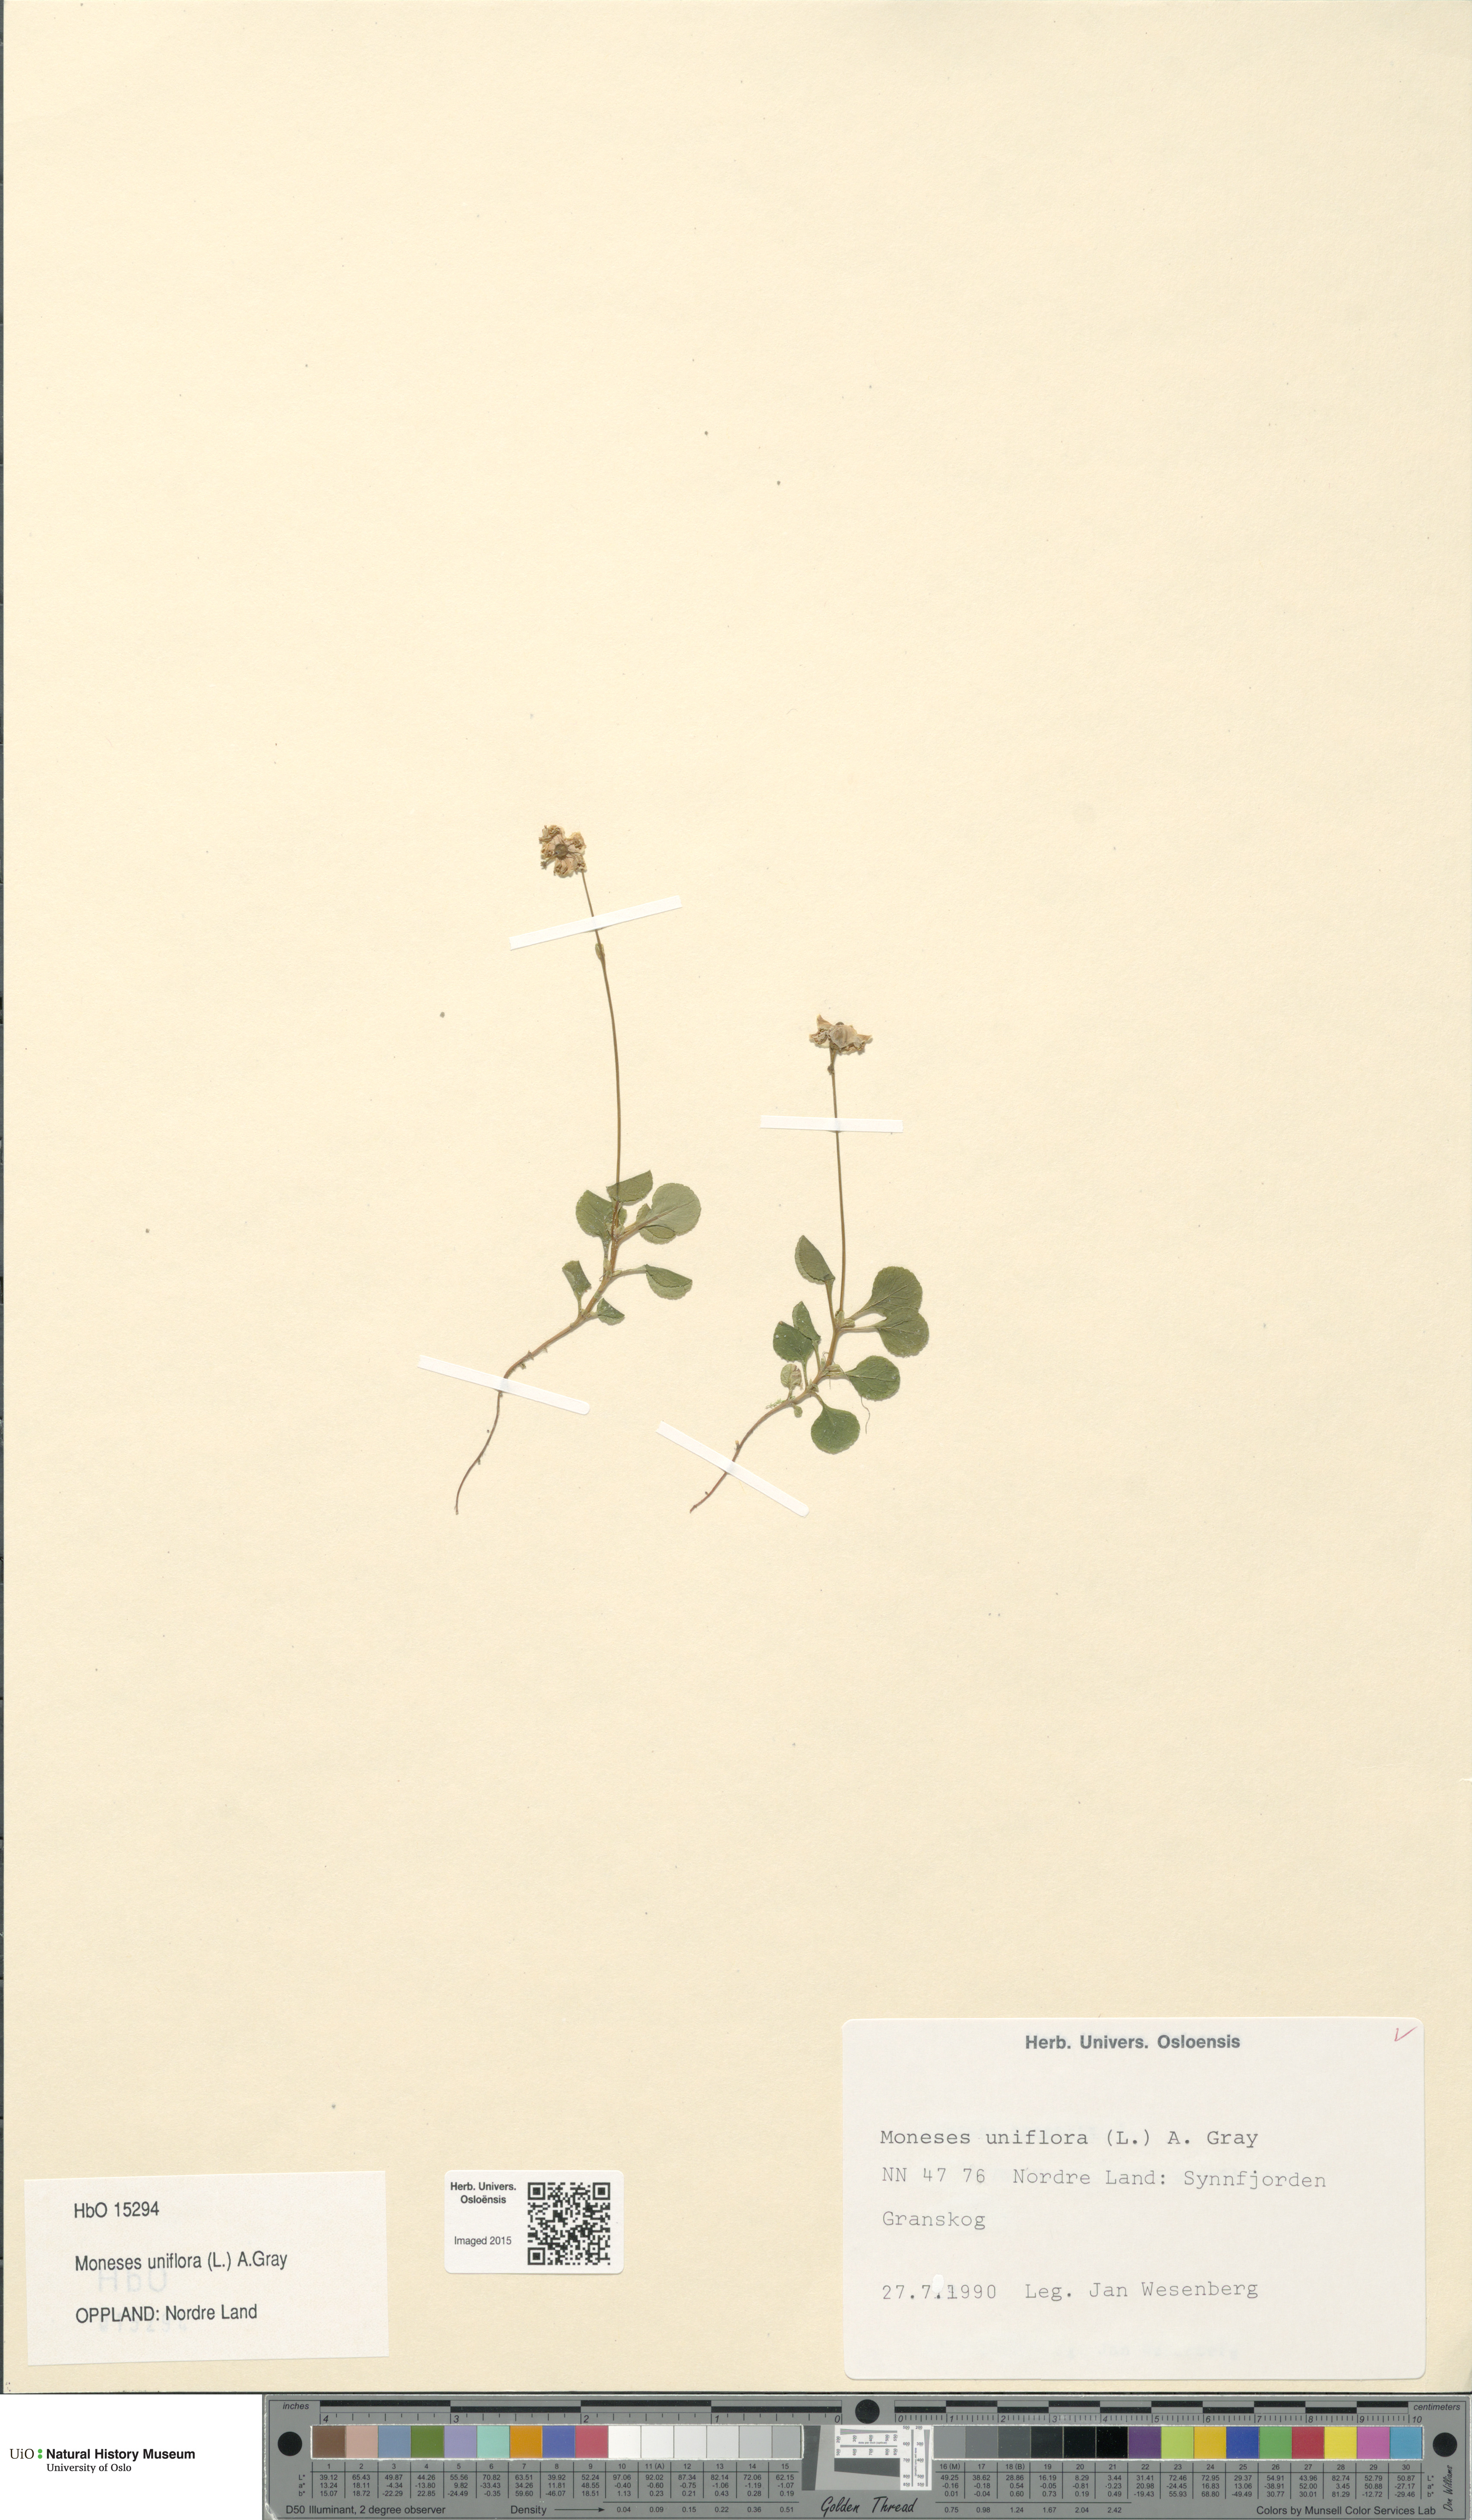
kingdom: Plantae
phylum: Tracheophyta
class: Magnoliopsida
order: Ericales
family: Ericaceae
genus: Moneses
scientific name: Moneses uniflora
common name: One-flowered wintergreen
